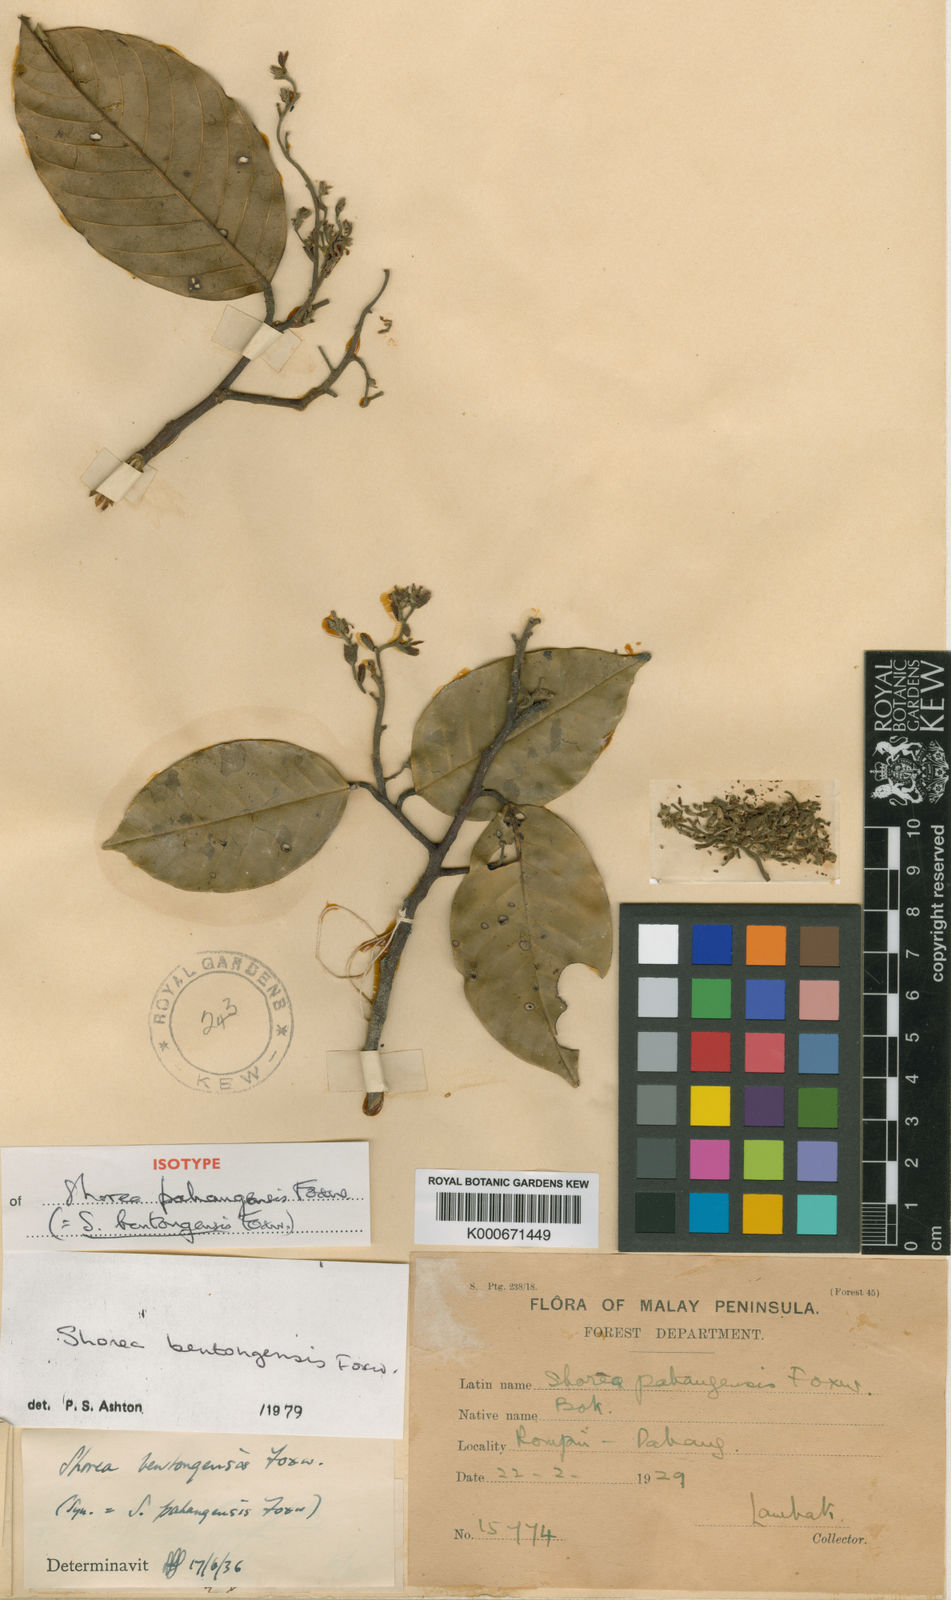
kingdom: Plantae
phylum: Tracheophyta
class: Magnoliopsida
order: Malvales
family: Dipterocarpaceae
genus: Anthoshorea
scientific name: Anthoshorea bentongensis
